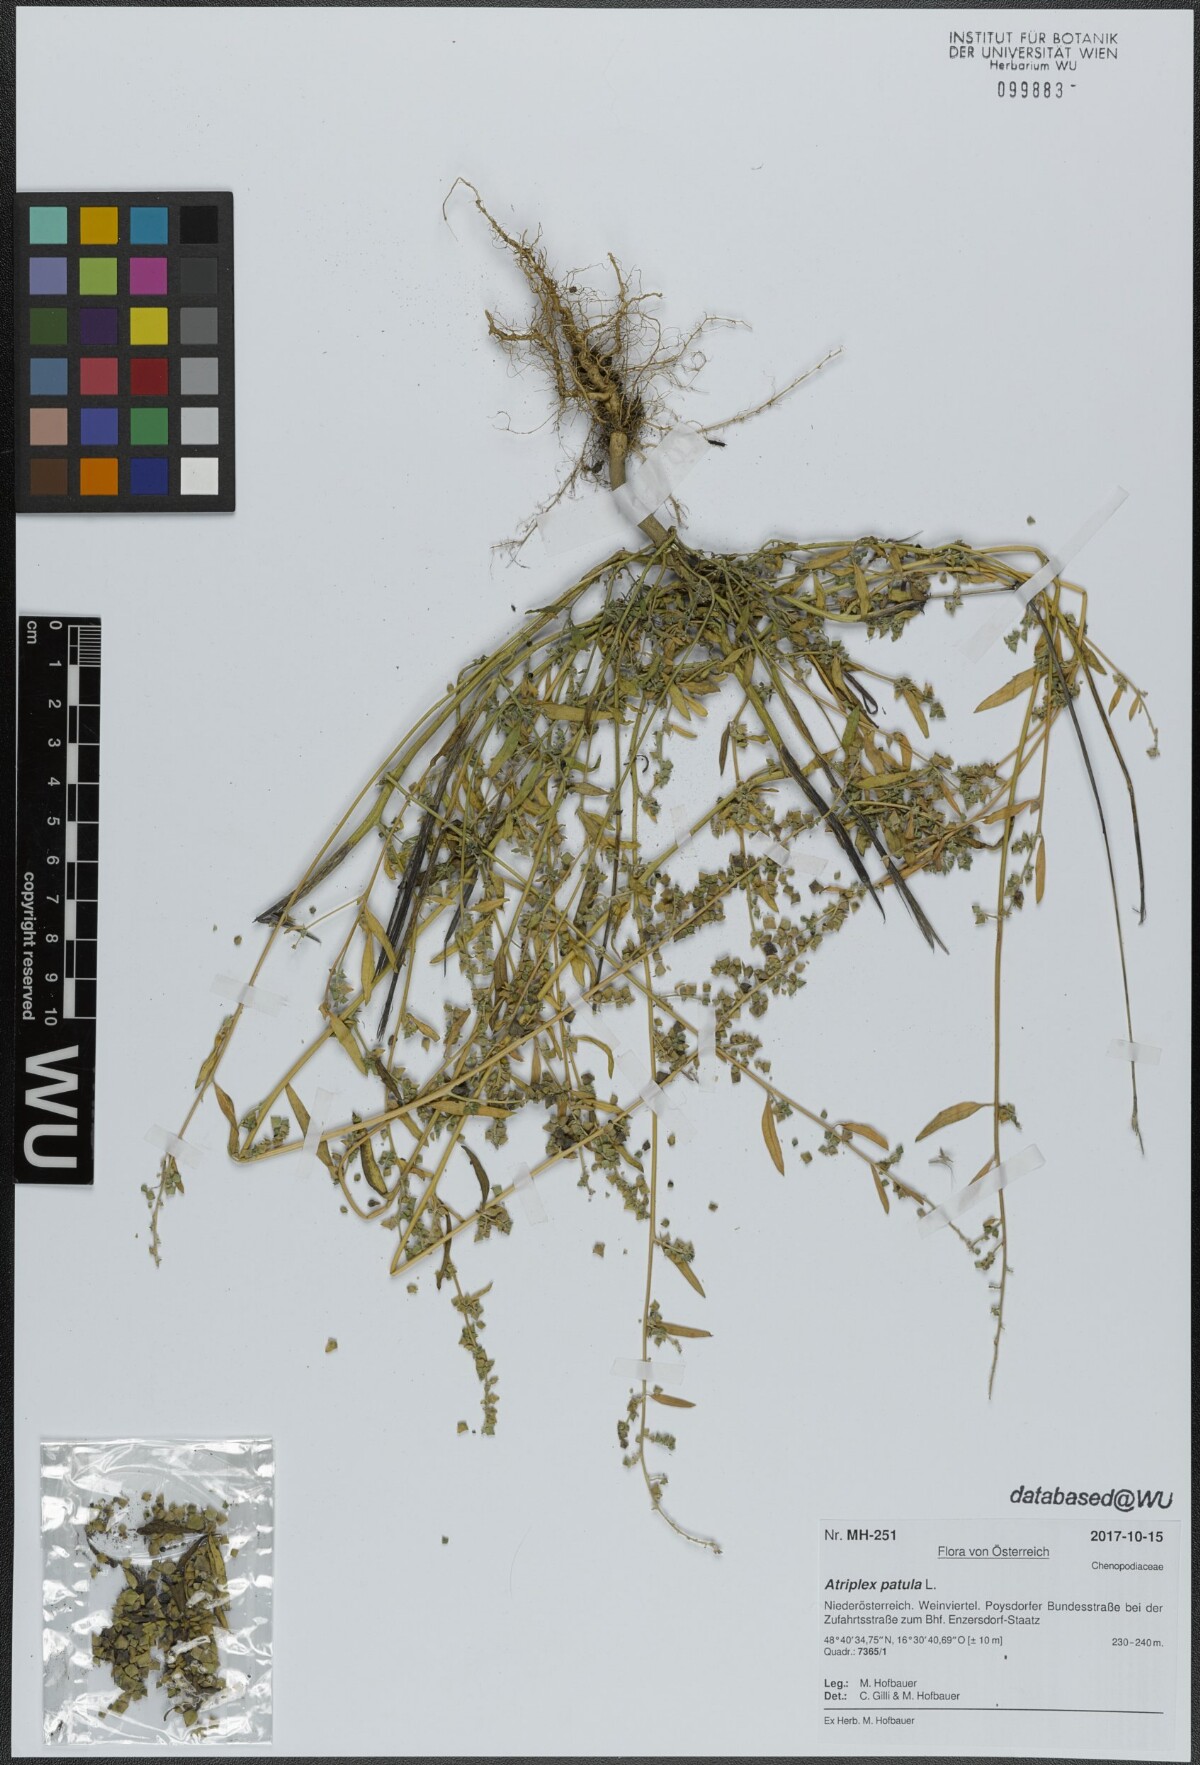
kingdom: Plantae
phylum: Tracheophyta
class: Magnoliopsida
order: Caryophyllales
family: Amaranthaceae
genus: Atriplex
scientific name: Atriplex patula
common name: Common orache
